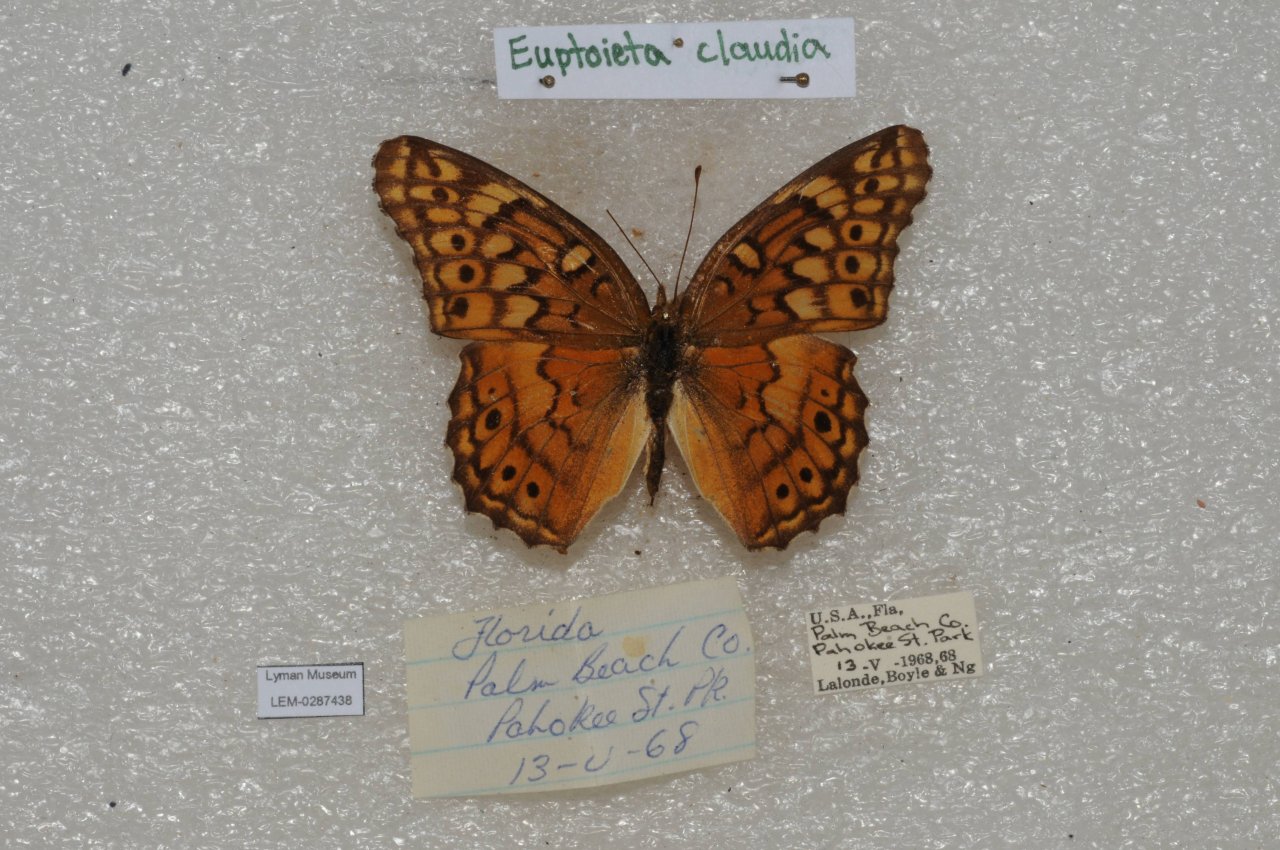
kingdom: Animalia
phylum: Arthropoda
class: Insecta
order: Lepidoptera
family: Nymphalidae
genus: Euptoieta
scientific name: Euptoieta claudia
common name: Variegated Fritillary
